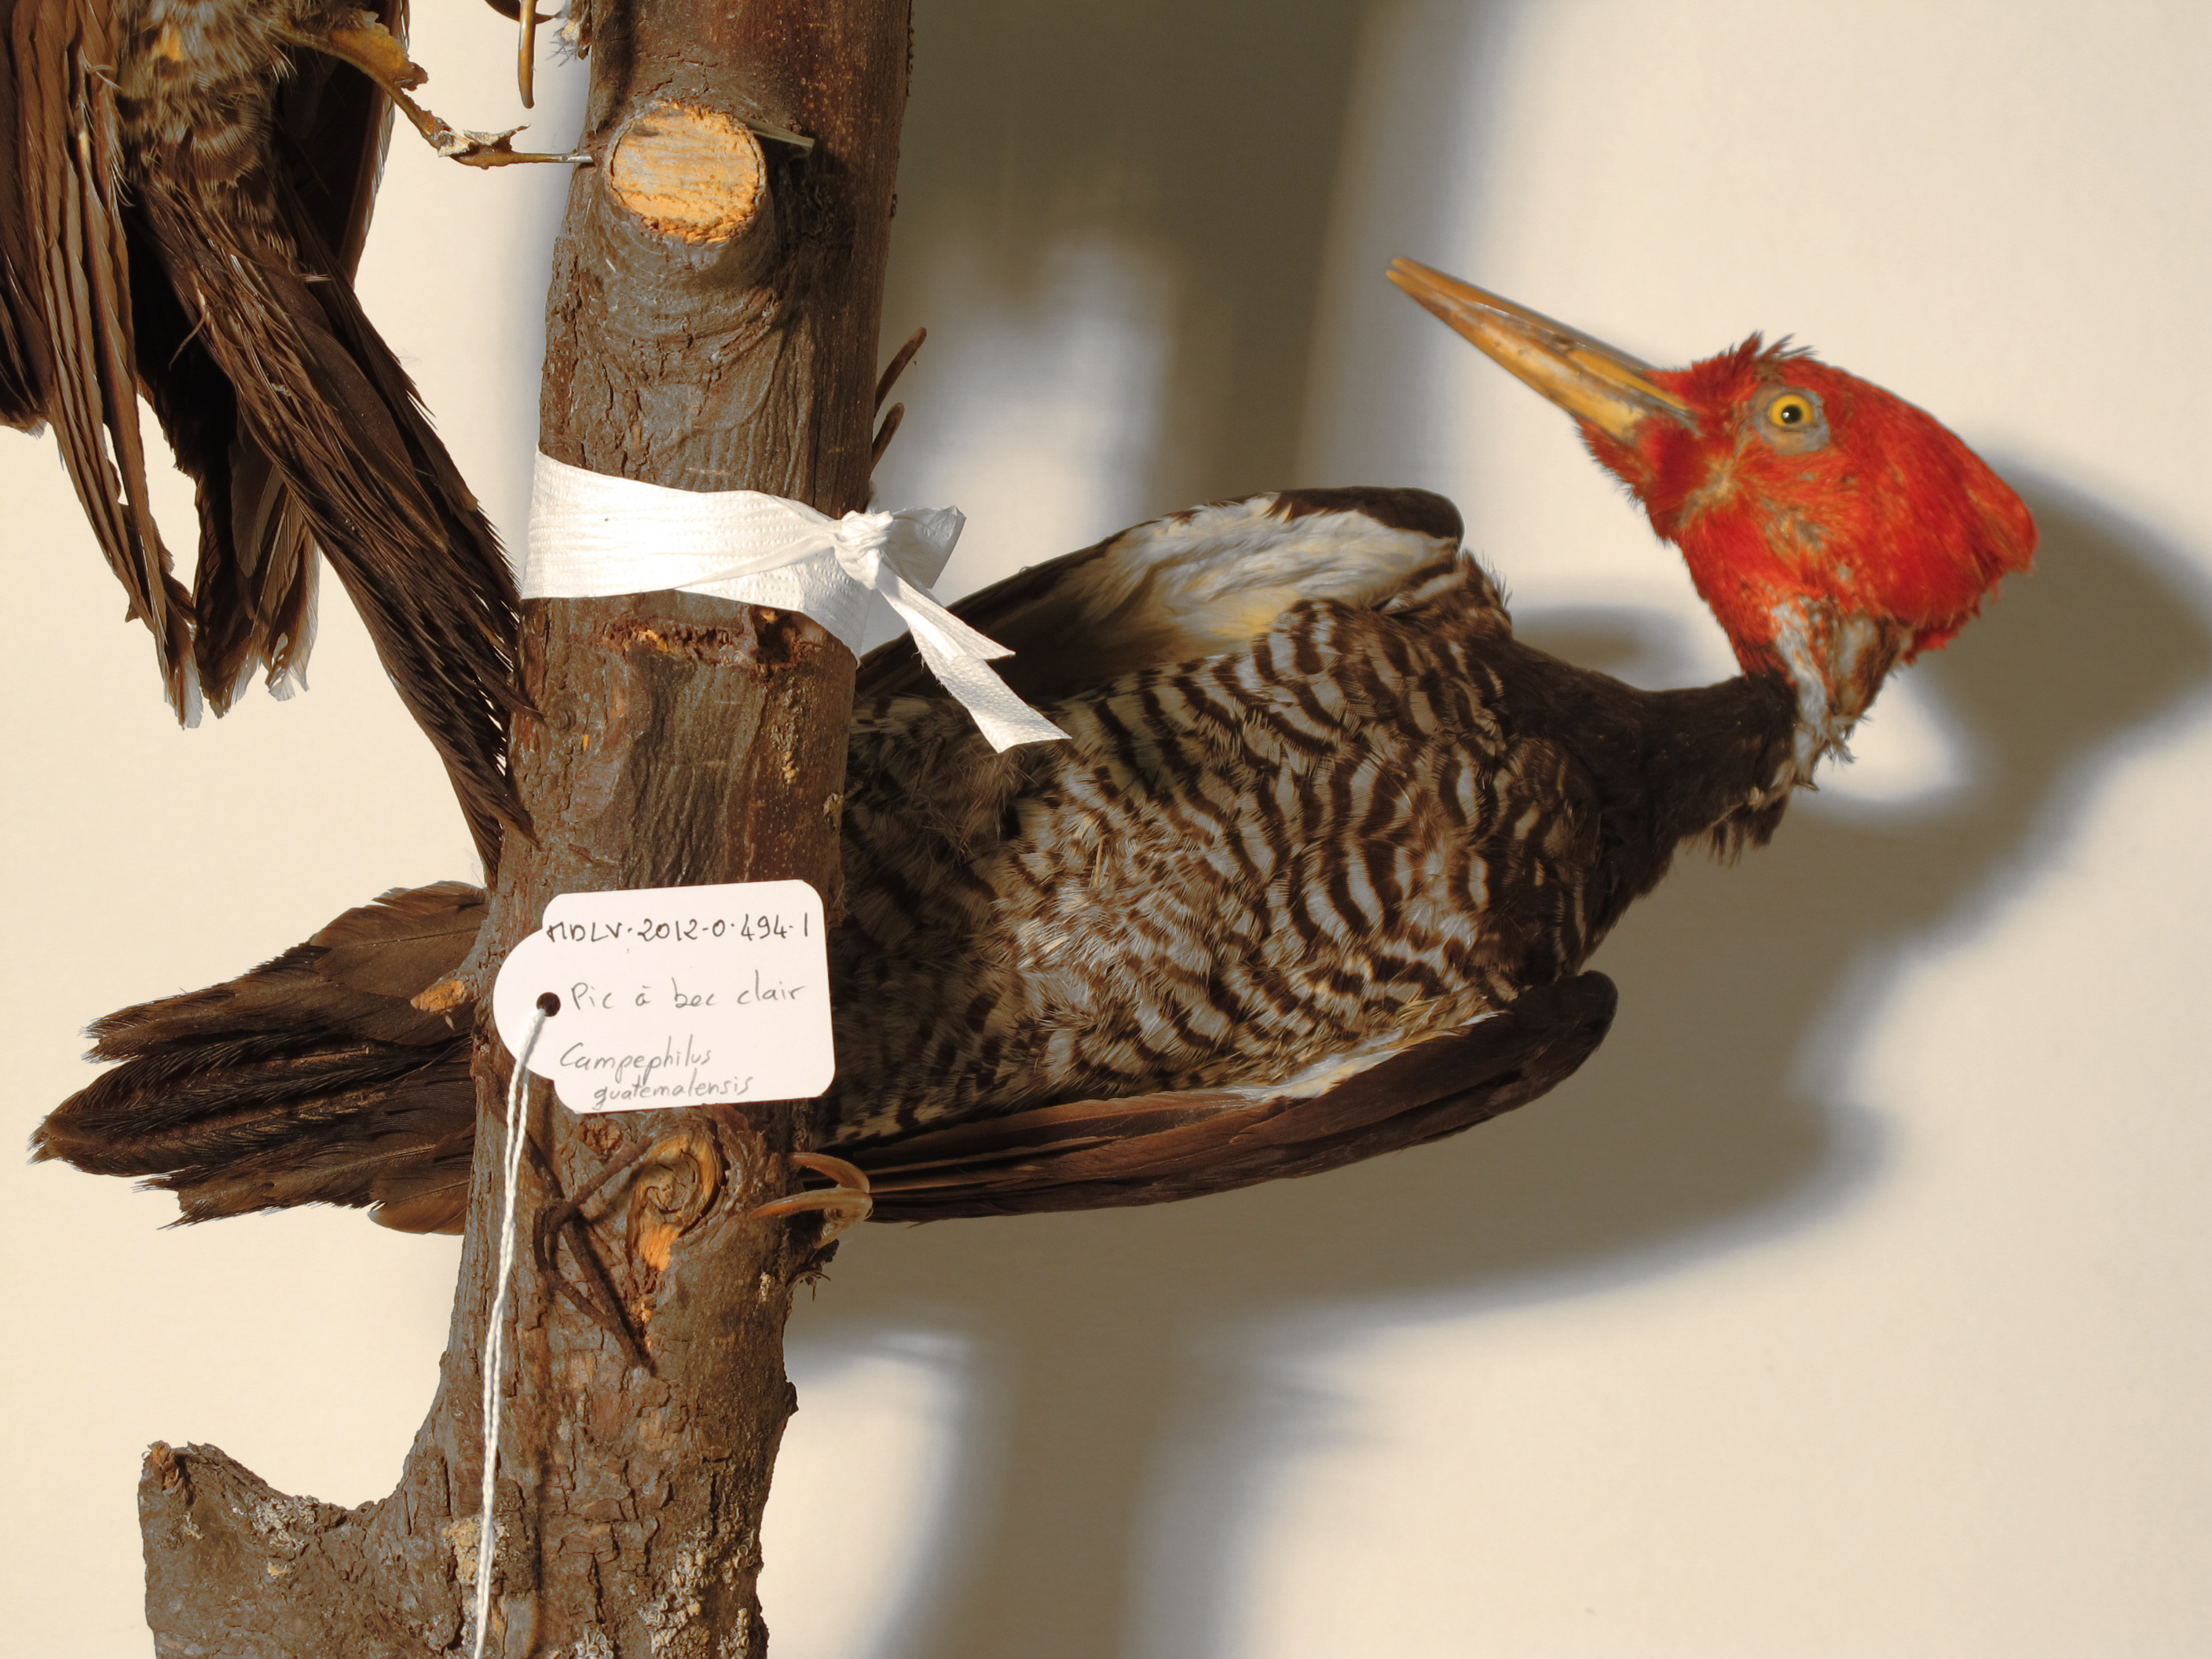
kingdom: Animalia
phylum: Chordata
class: Aves
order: Piciformes
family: Picidae
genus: Campephilus
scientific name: Campephilus guatemalensis
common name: Pale-billed Woodpecker
